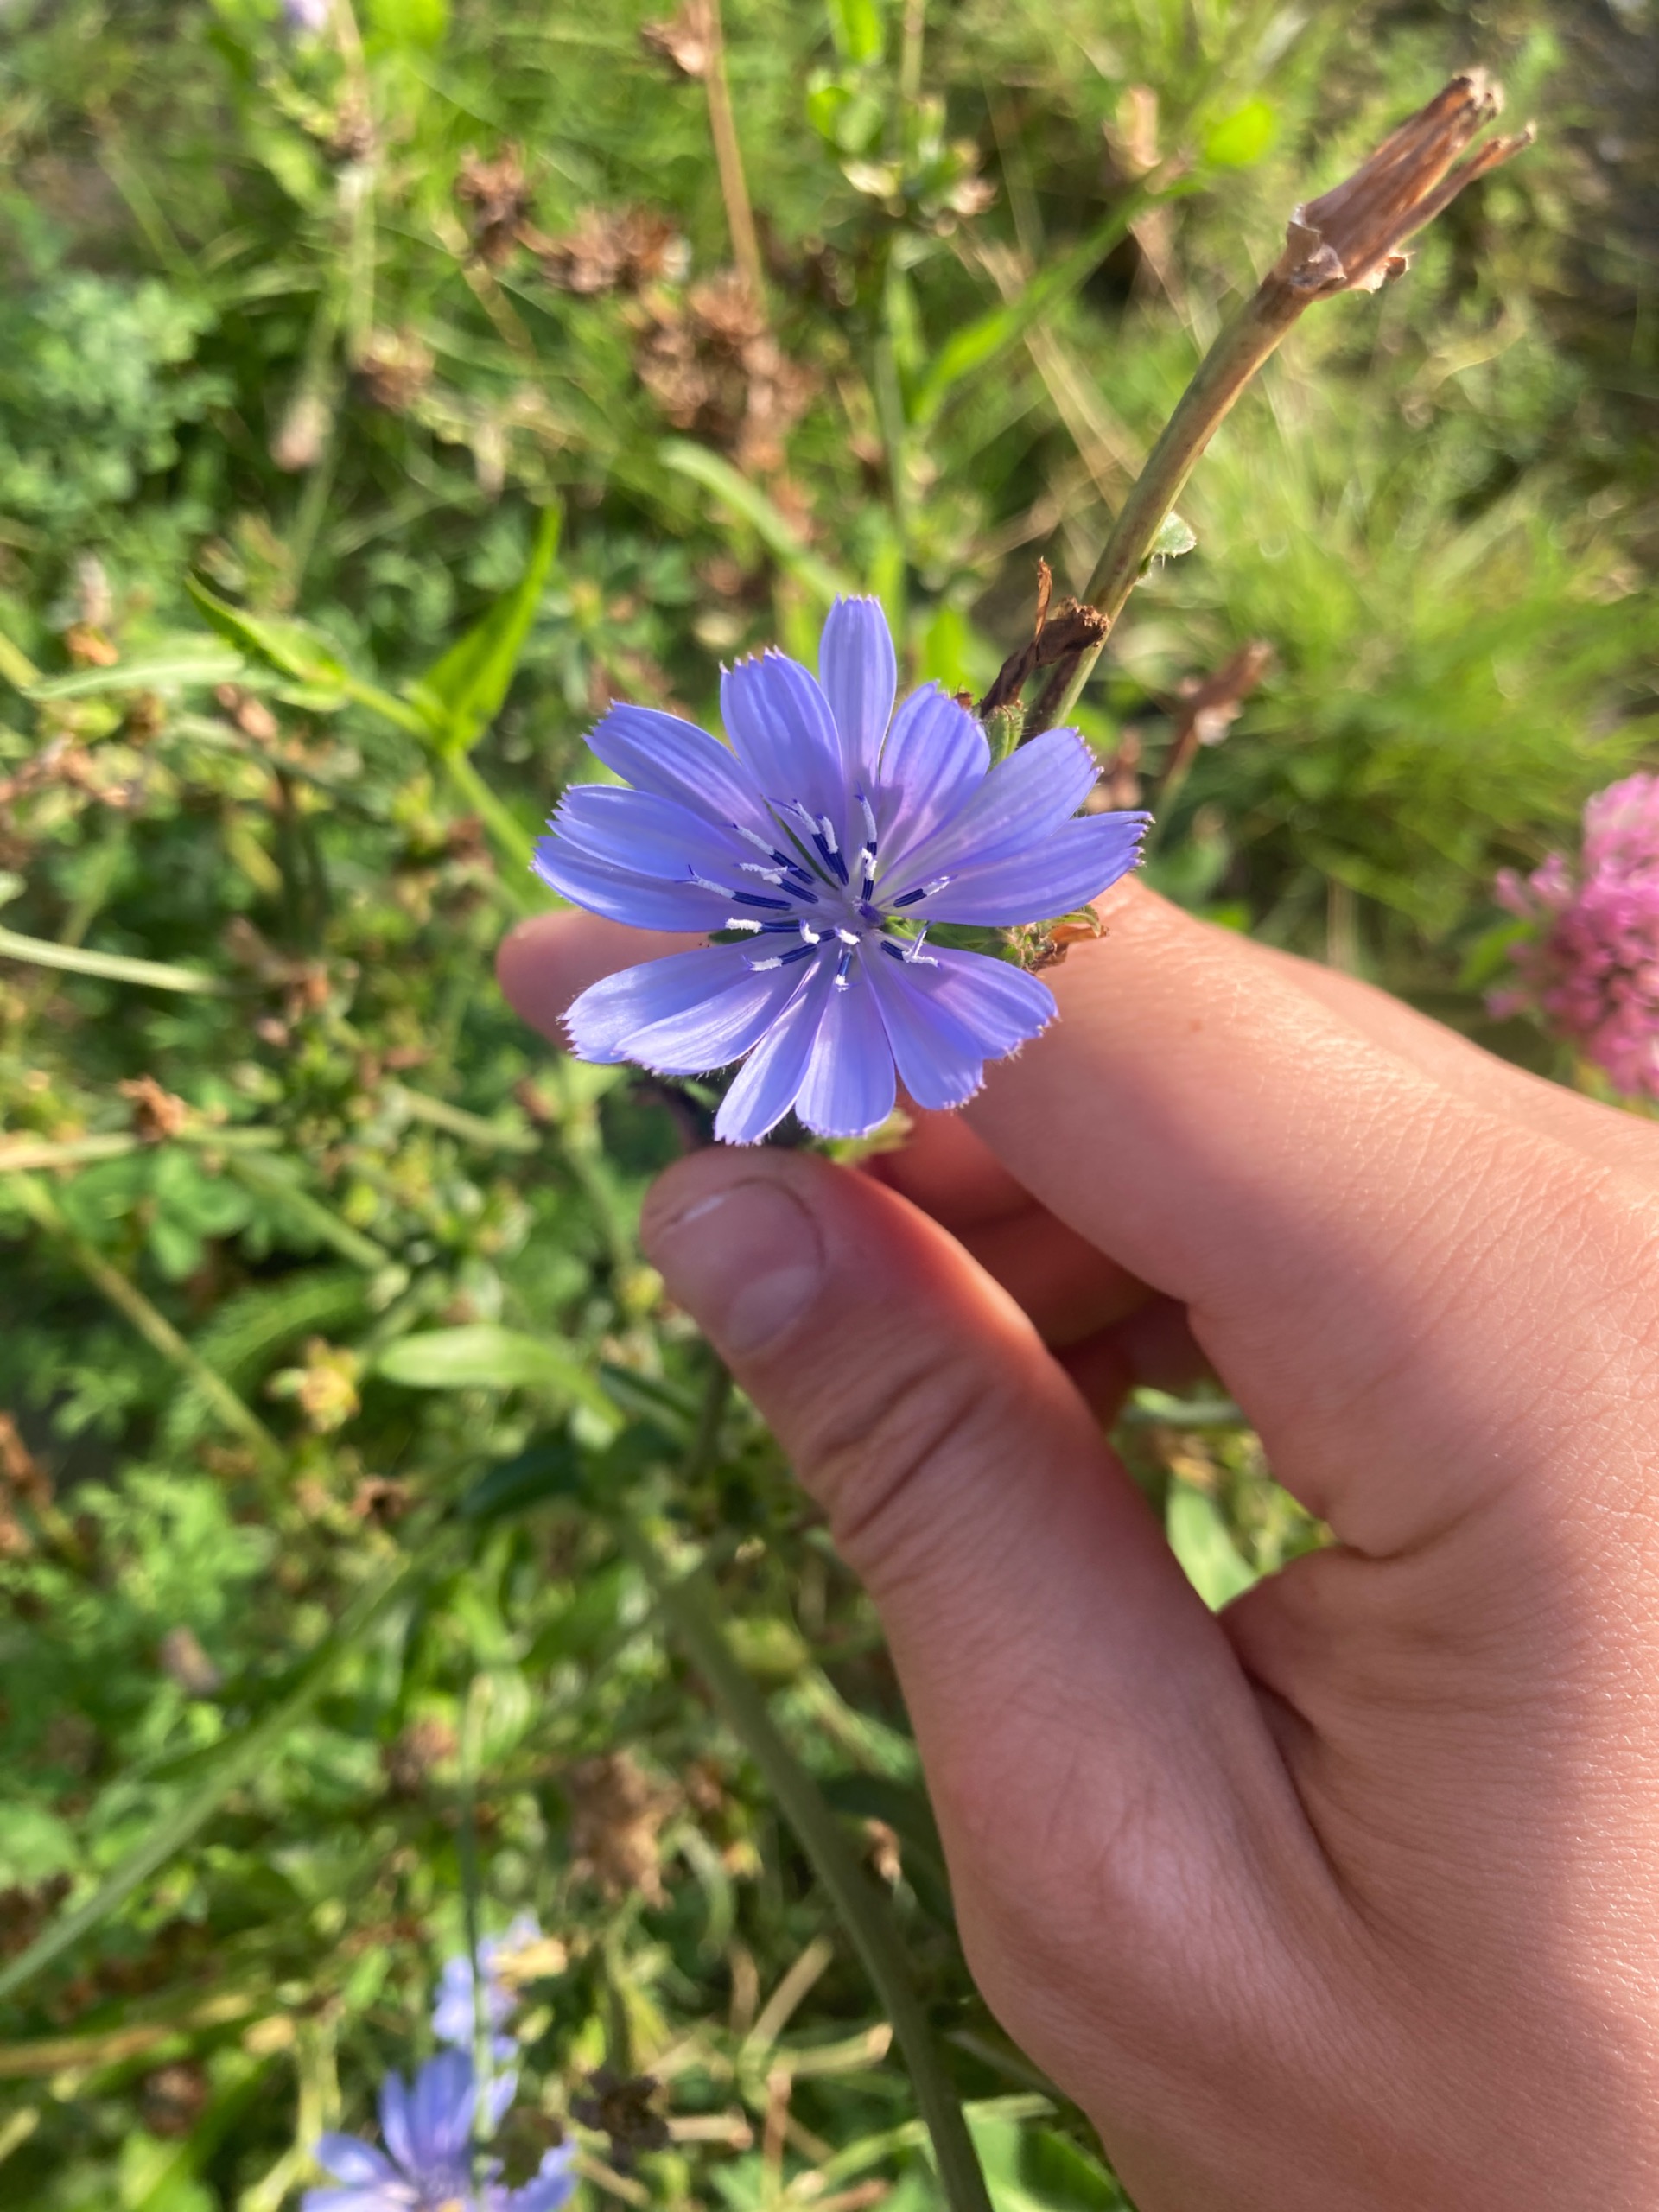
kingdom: Plantae
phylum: Tracheophyta
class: Magnoliopsida
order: Asterales
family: Asteraceae
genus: Cichorium
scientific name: Cichorium intybus
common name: Cikorie
